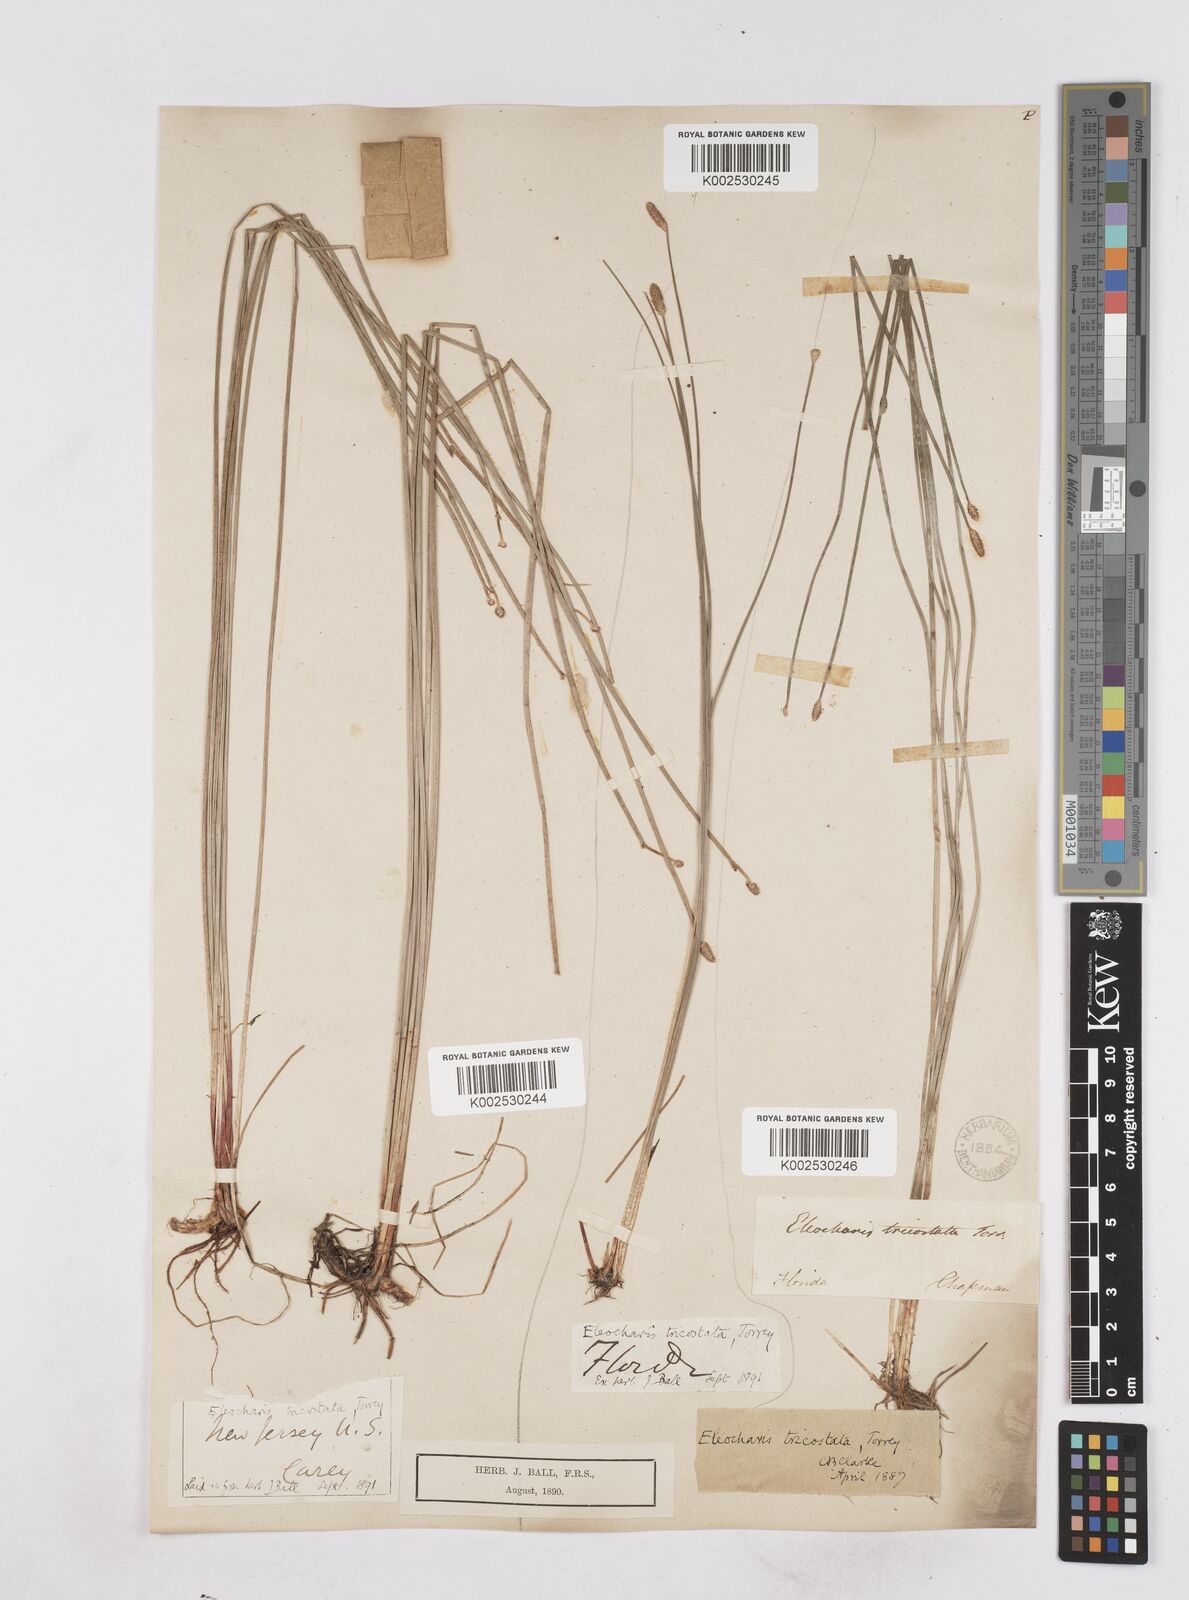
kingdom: Plantae
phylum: Tracheophyta
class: Liliopsida
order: Poales
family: Cyperaceae
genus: Eleocharis
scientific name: Eleocharis tricostata
